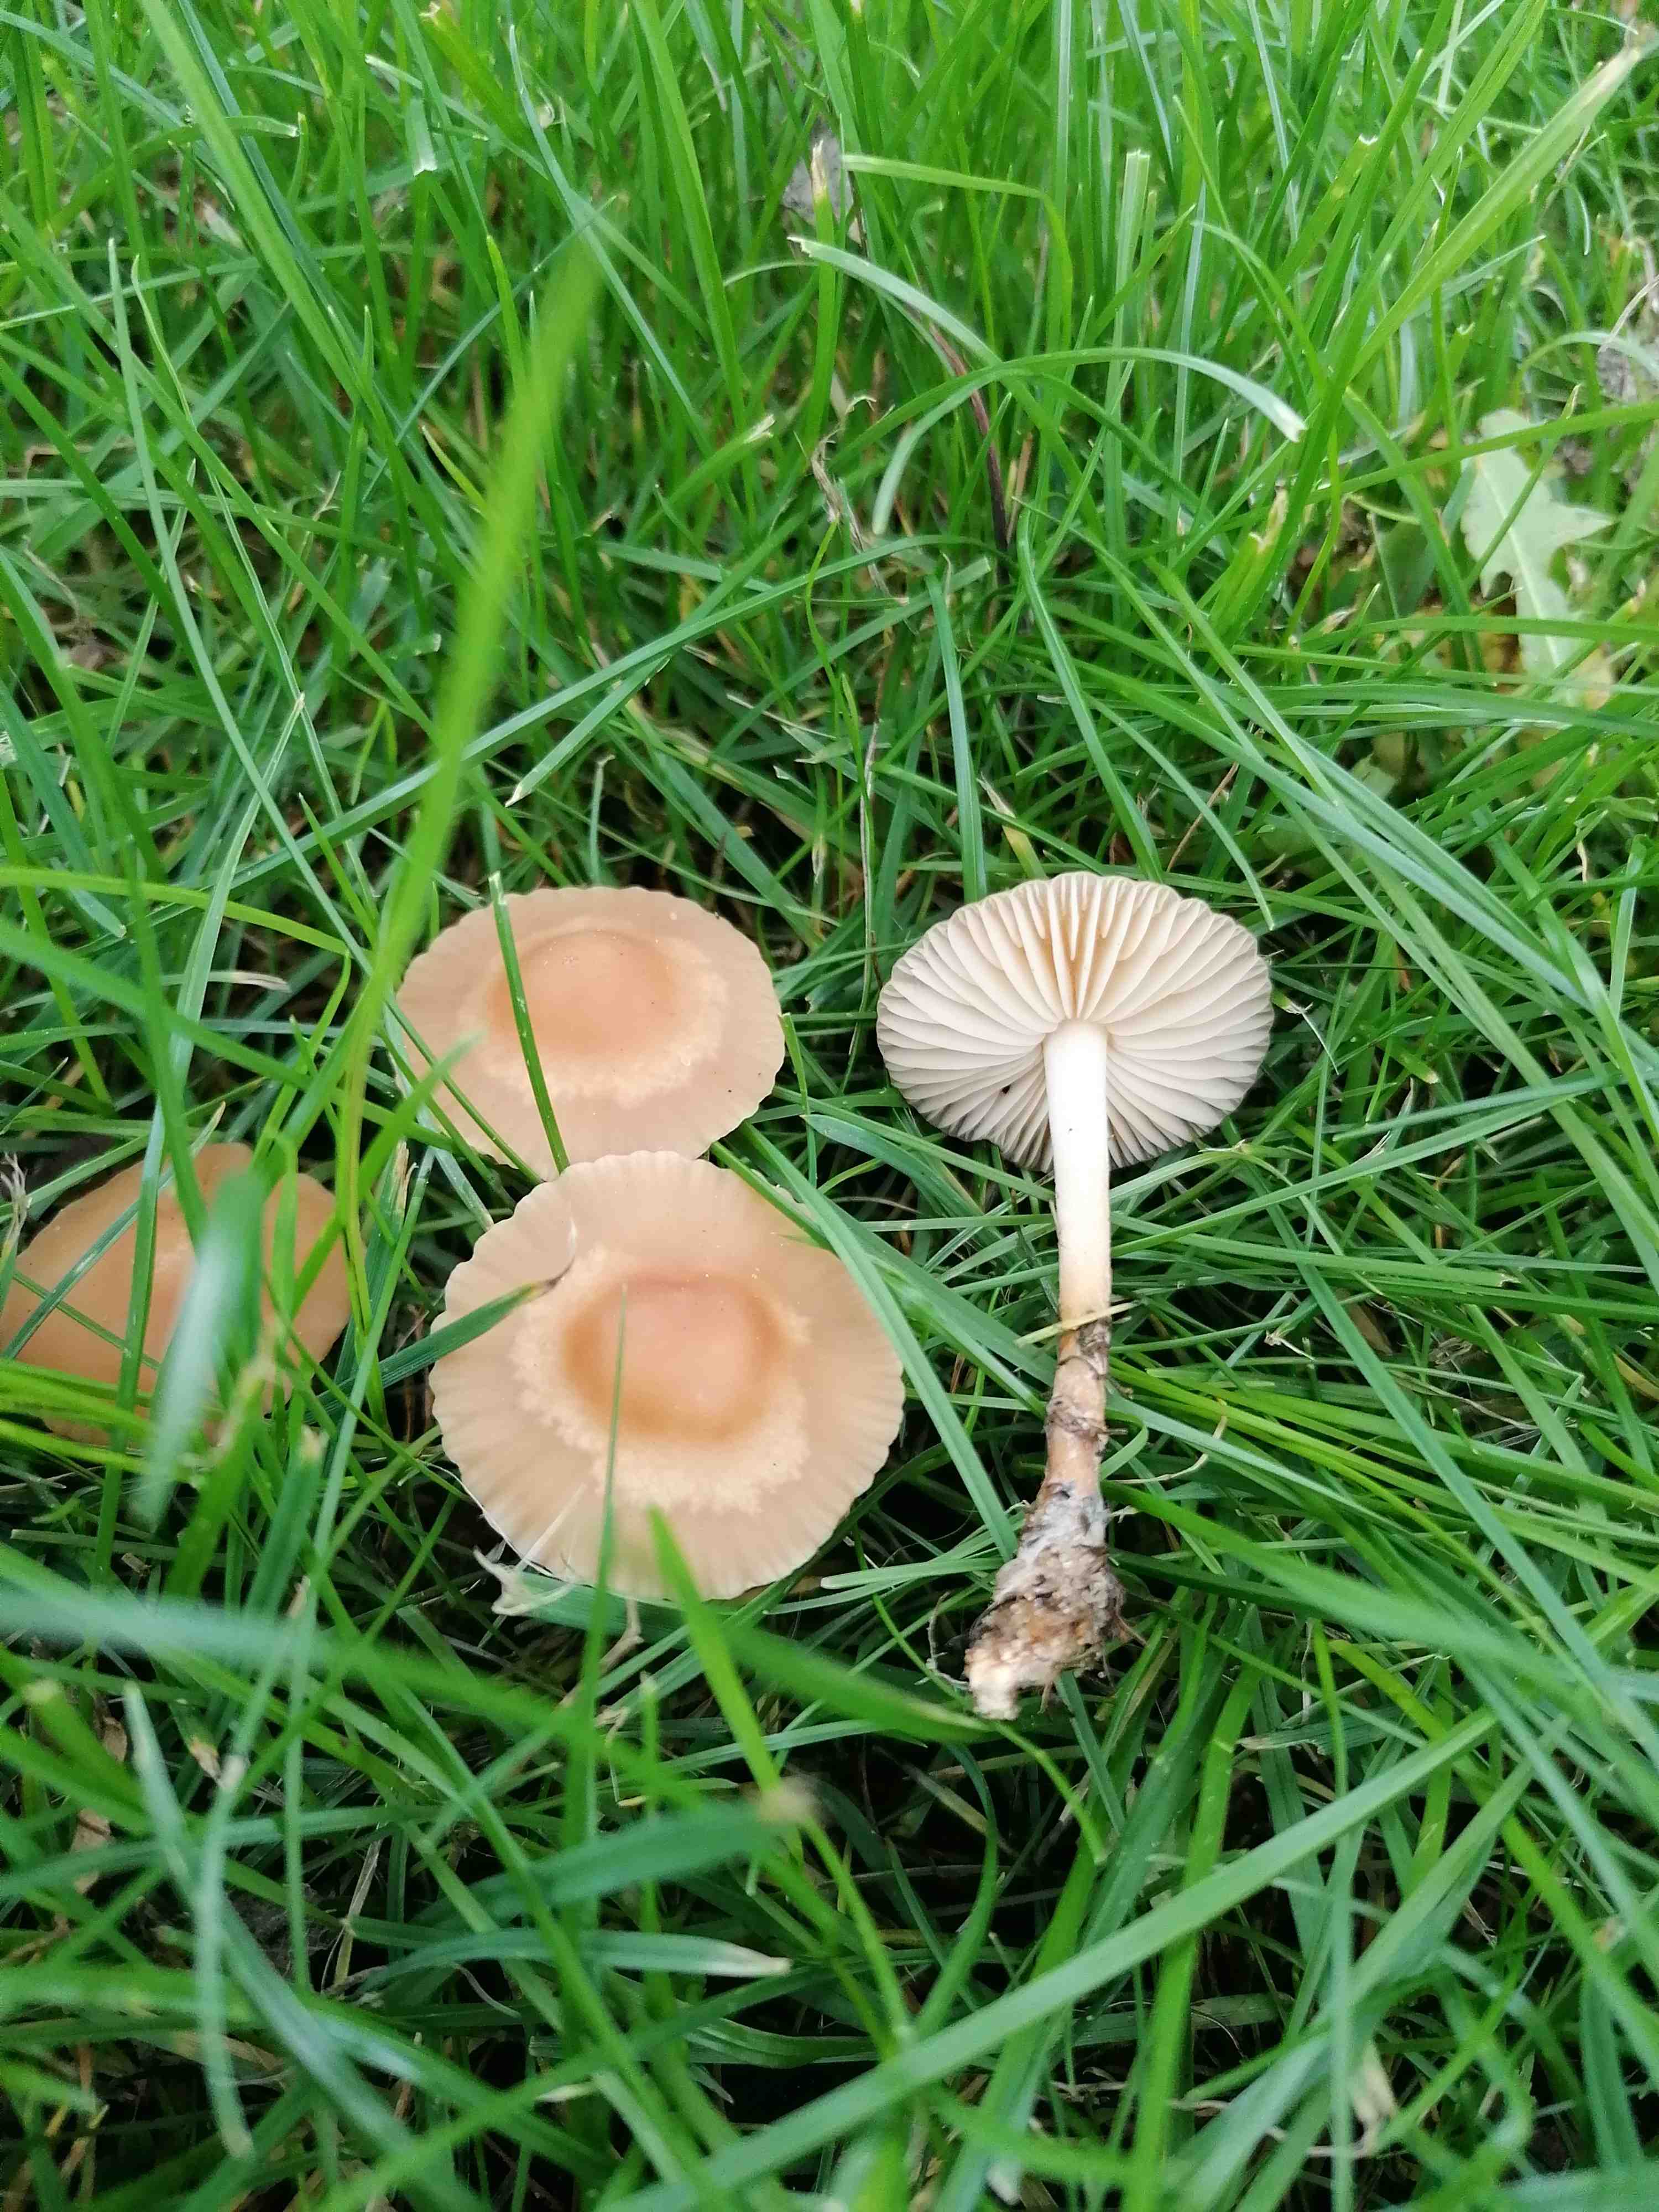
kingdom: Fungi
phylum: Basidiomycota
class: Agaricomycetes
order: Agaricales
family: Marasmiaceae
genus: Marasmius
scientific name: Marasmius oreades
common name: elledans-bruskhat
